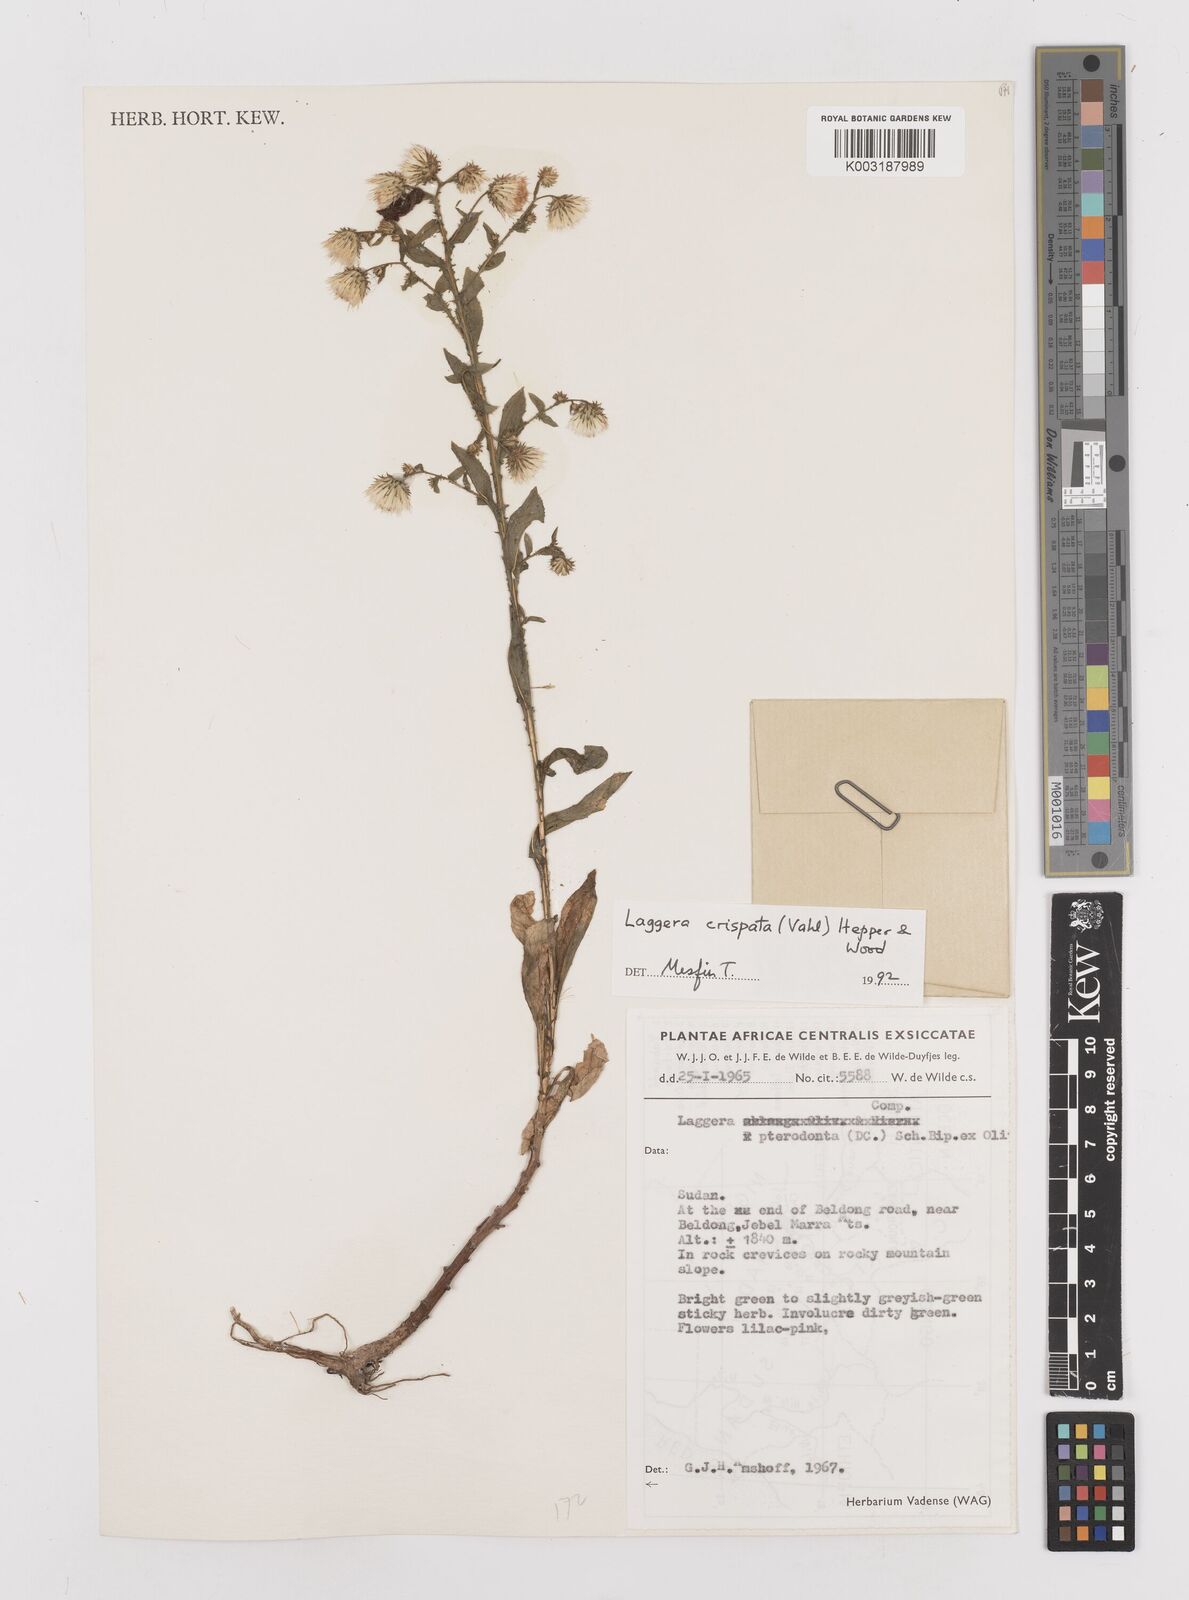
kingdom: Plantae
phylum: Tracheophyta
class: Magnoliopsida
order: Asterales
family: Asteraceae
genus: Laggera
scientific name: Laggera crispata
